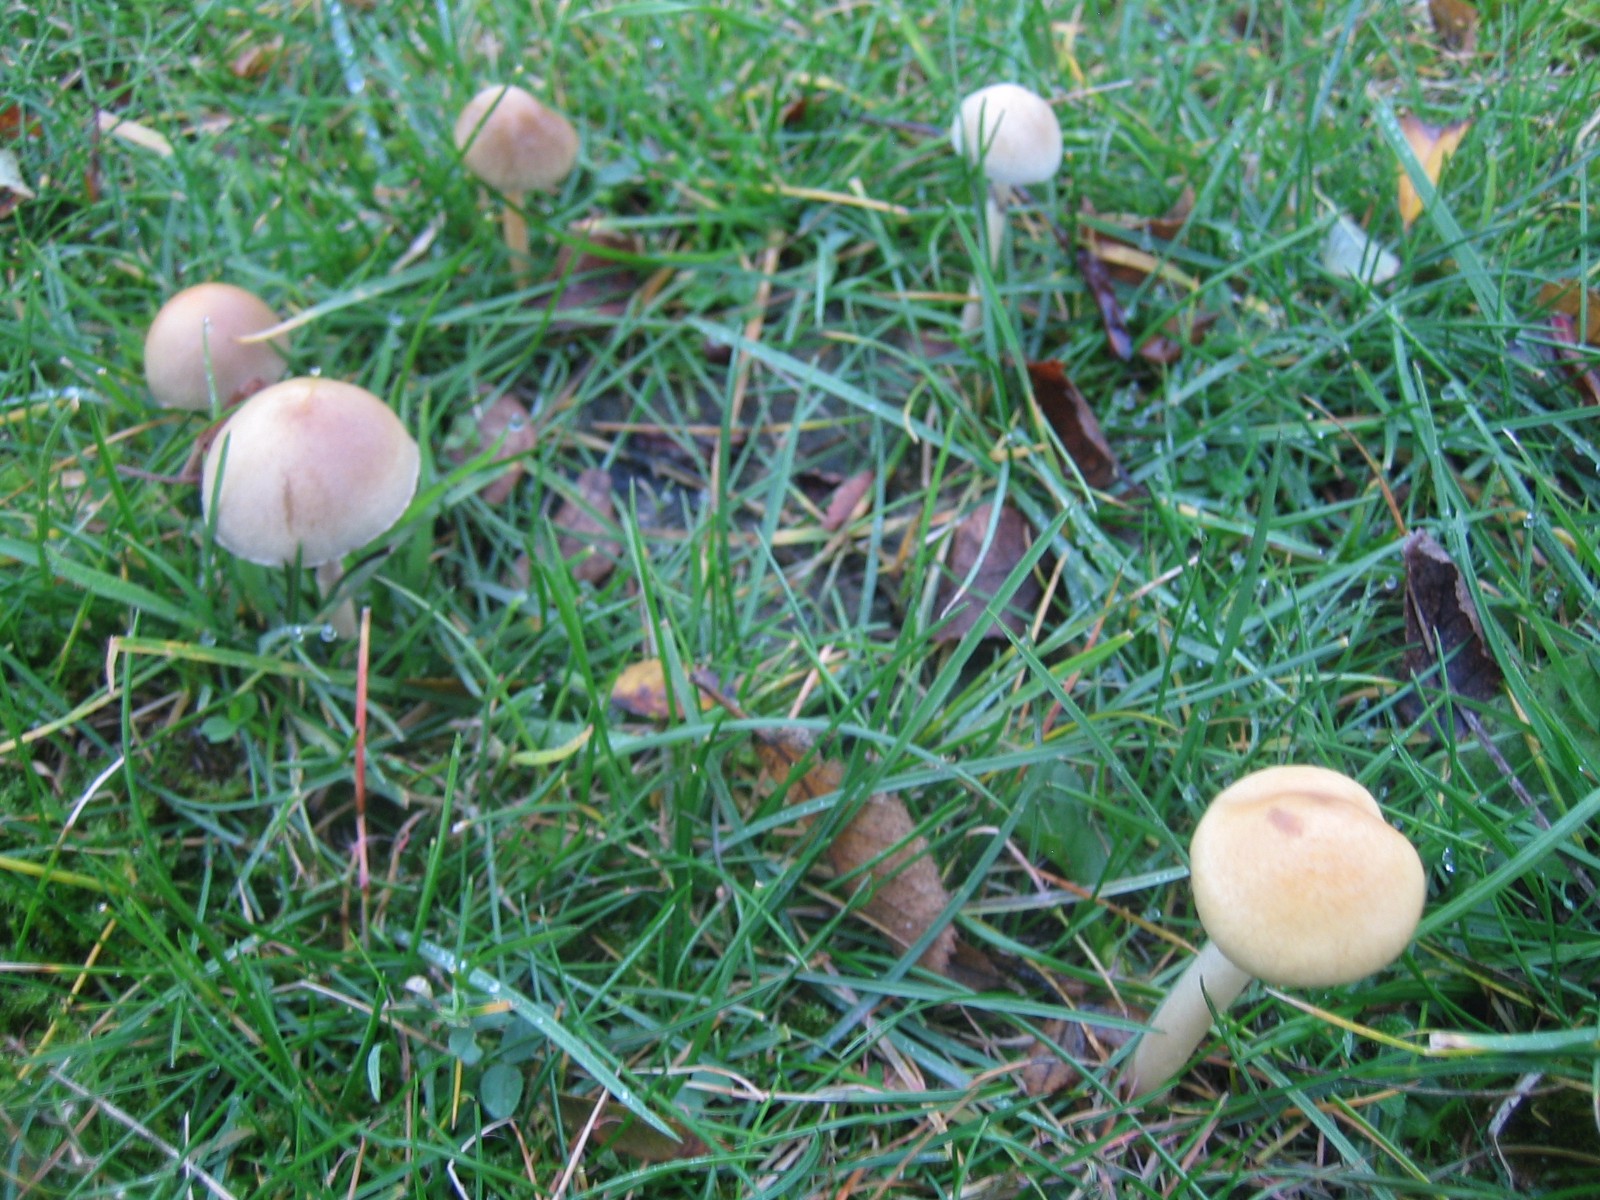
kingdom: Fungi
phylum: Basidiomycota
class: Agaricomycetes
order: Agaricales
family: Strophariaceae
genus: Protostropharia
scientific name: Protostropharia semiglobata
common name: halvkugleformet bredblad
